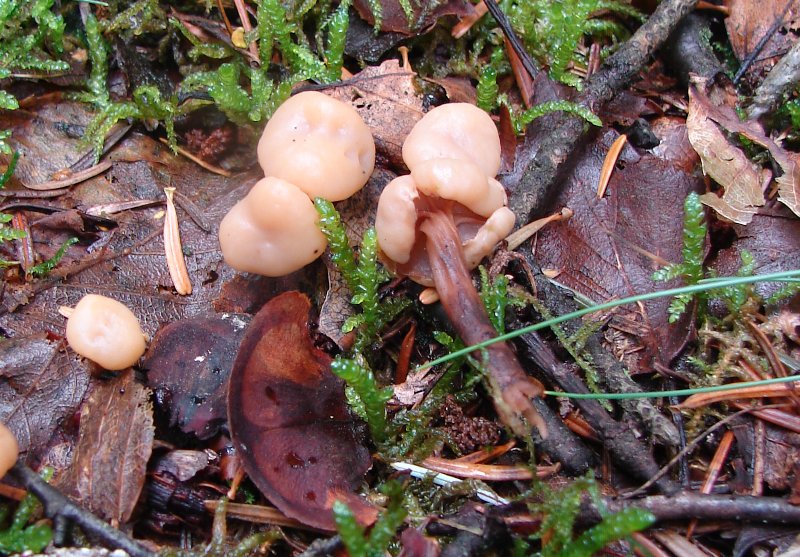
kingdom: Fungi
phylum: Ascomycota
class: Leotiomycetes
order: Rhytismatales
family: Cudoniaceae
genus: Cudonia
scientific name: Cudonia circinans
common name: hekserings-hjelmmorkel
